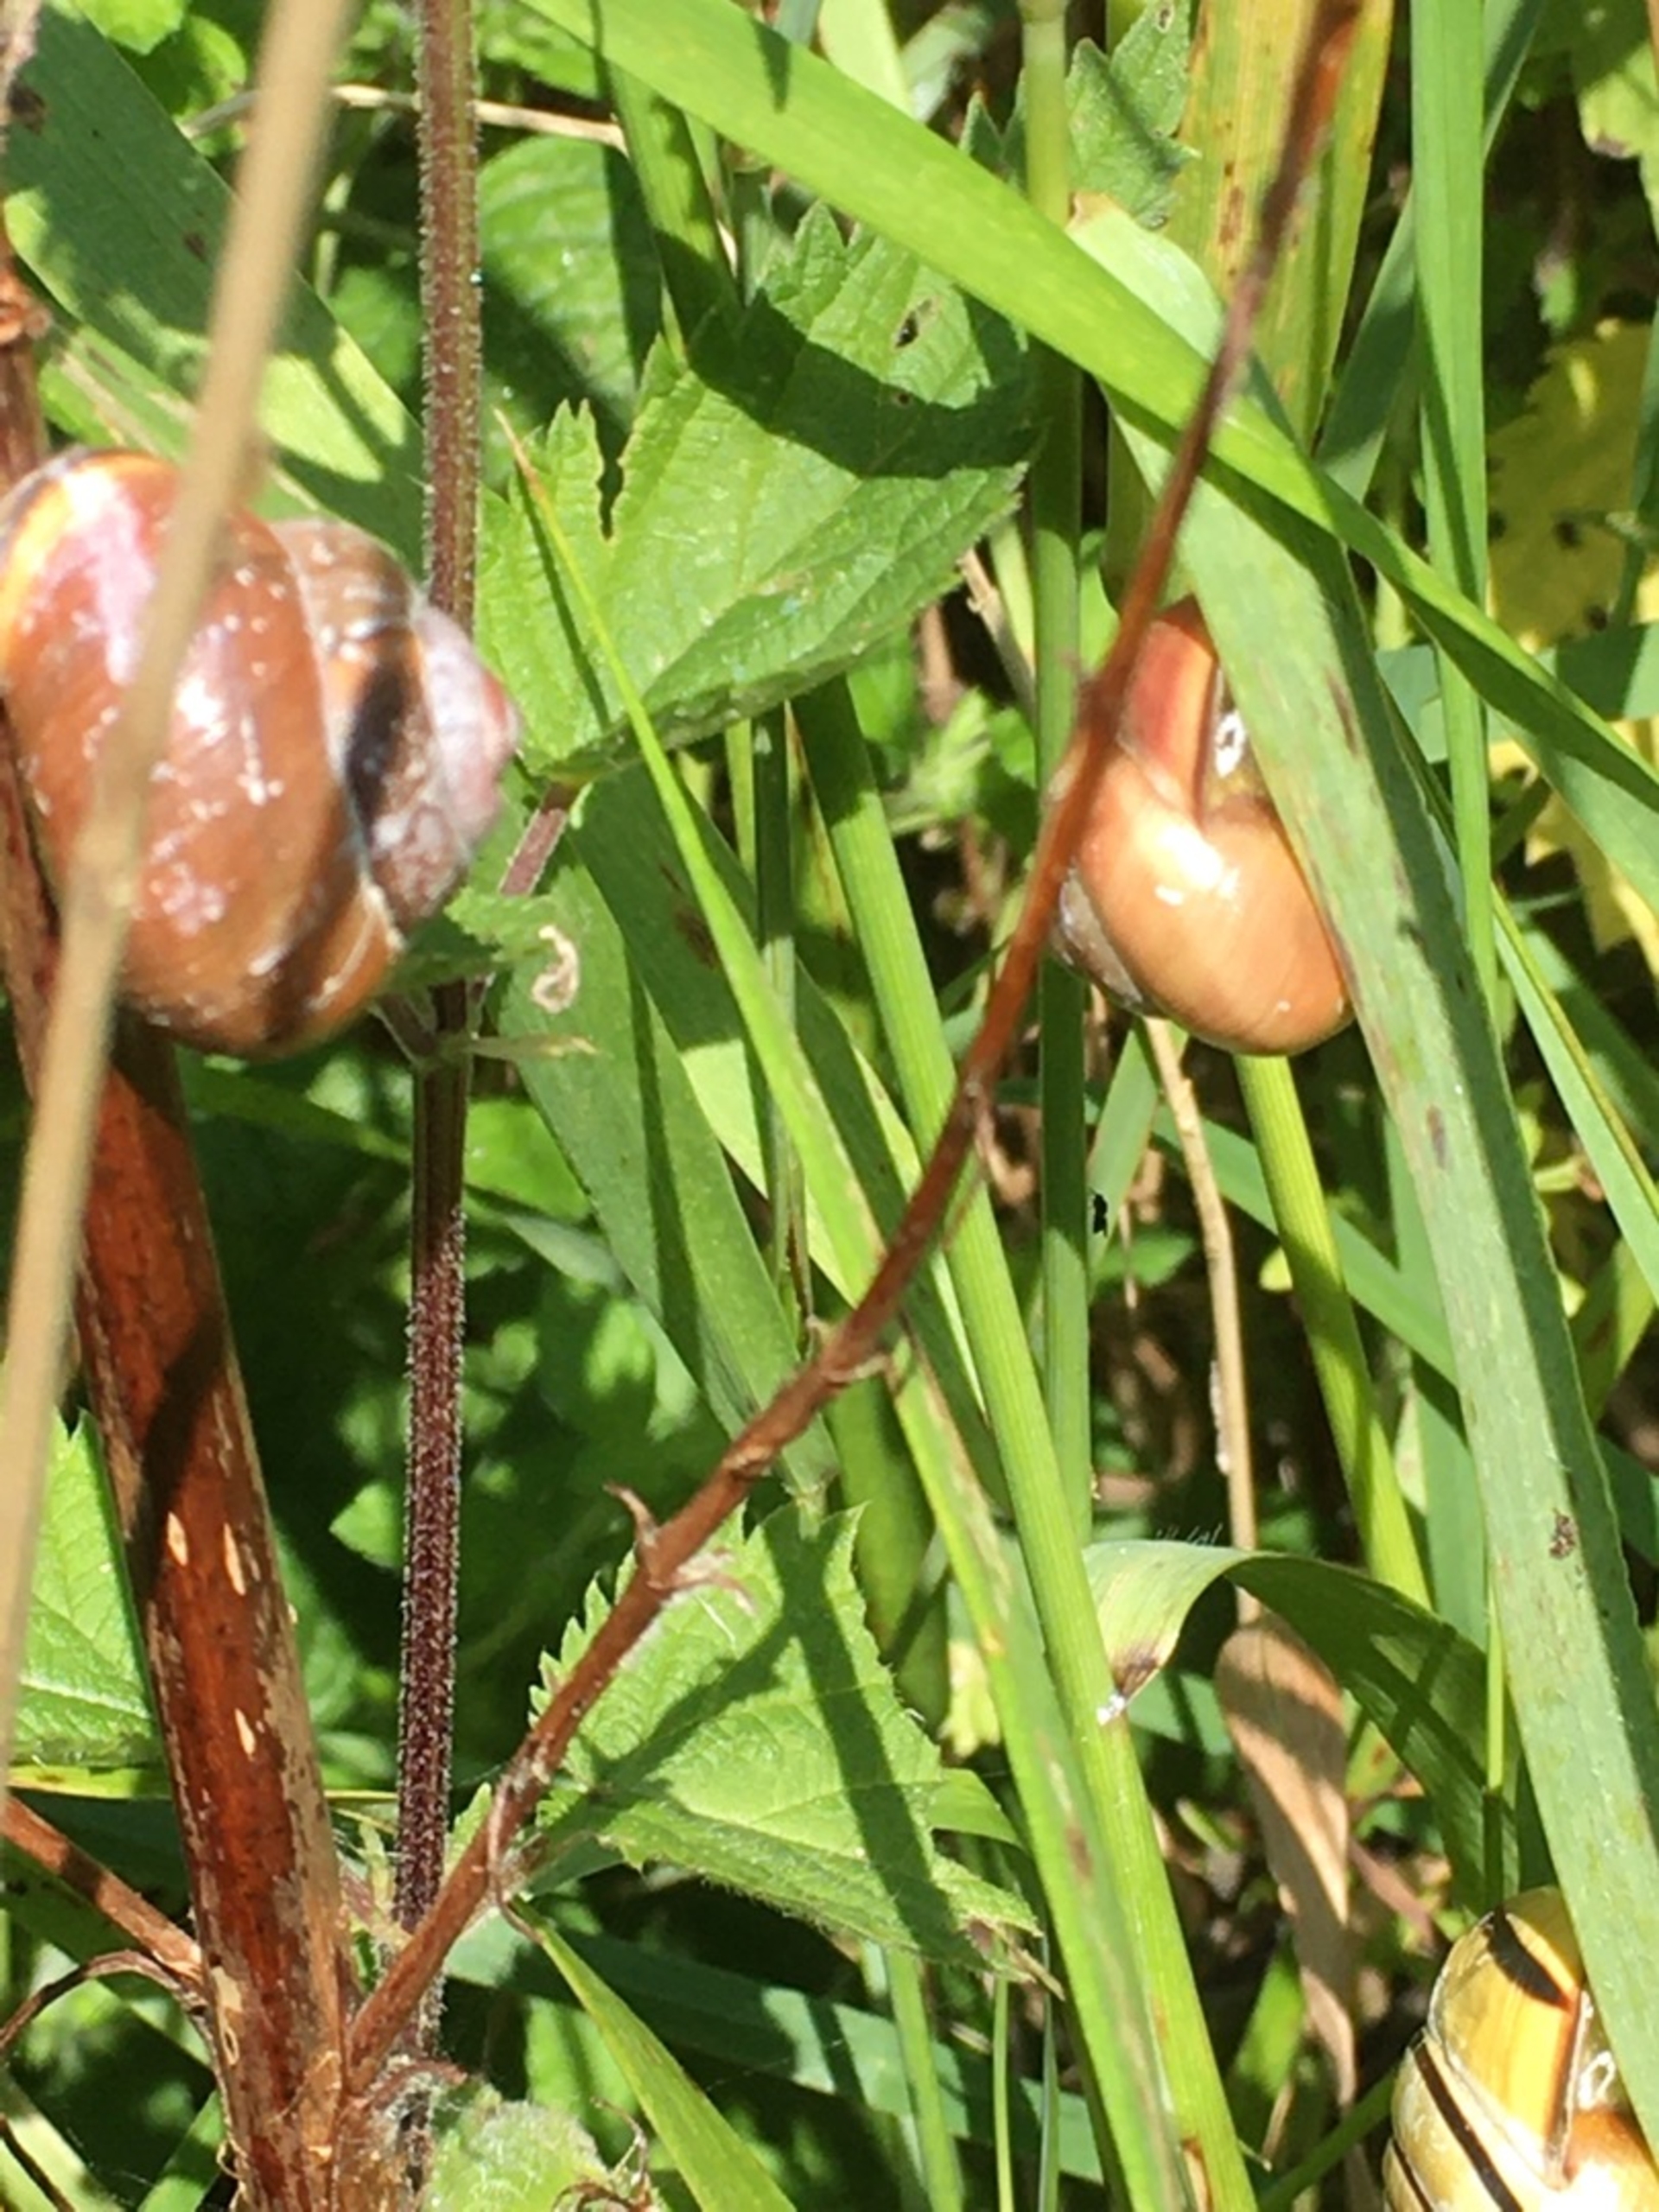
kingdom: Animalia
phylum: Mollusca
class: Gastropoda
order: Stylommatophora
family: Helicidae
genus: Cepaea
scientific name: Cepaea nemoralis
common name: Lundsnegl
